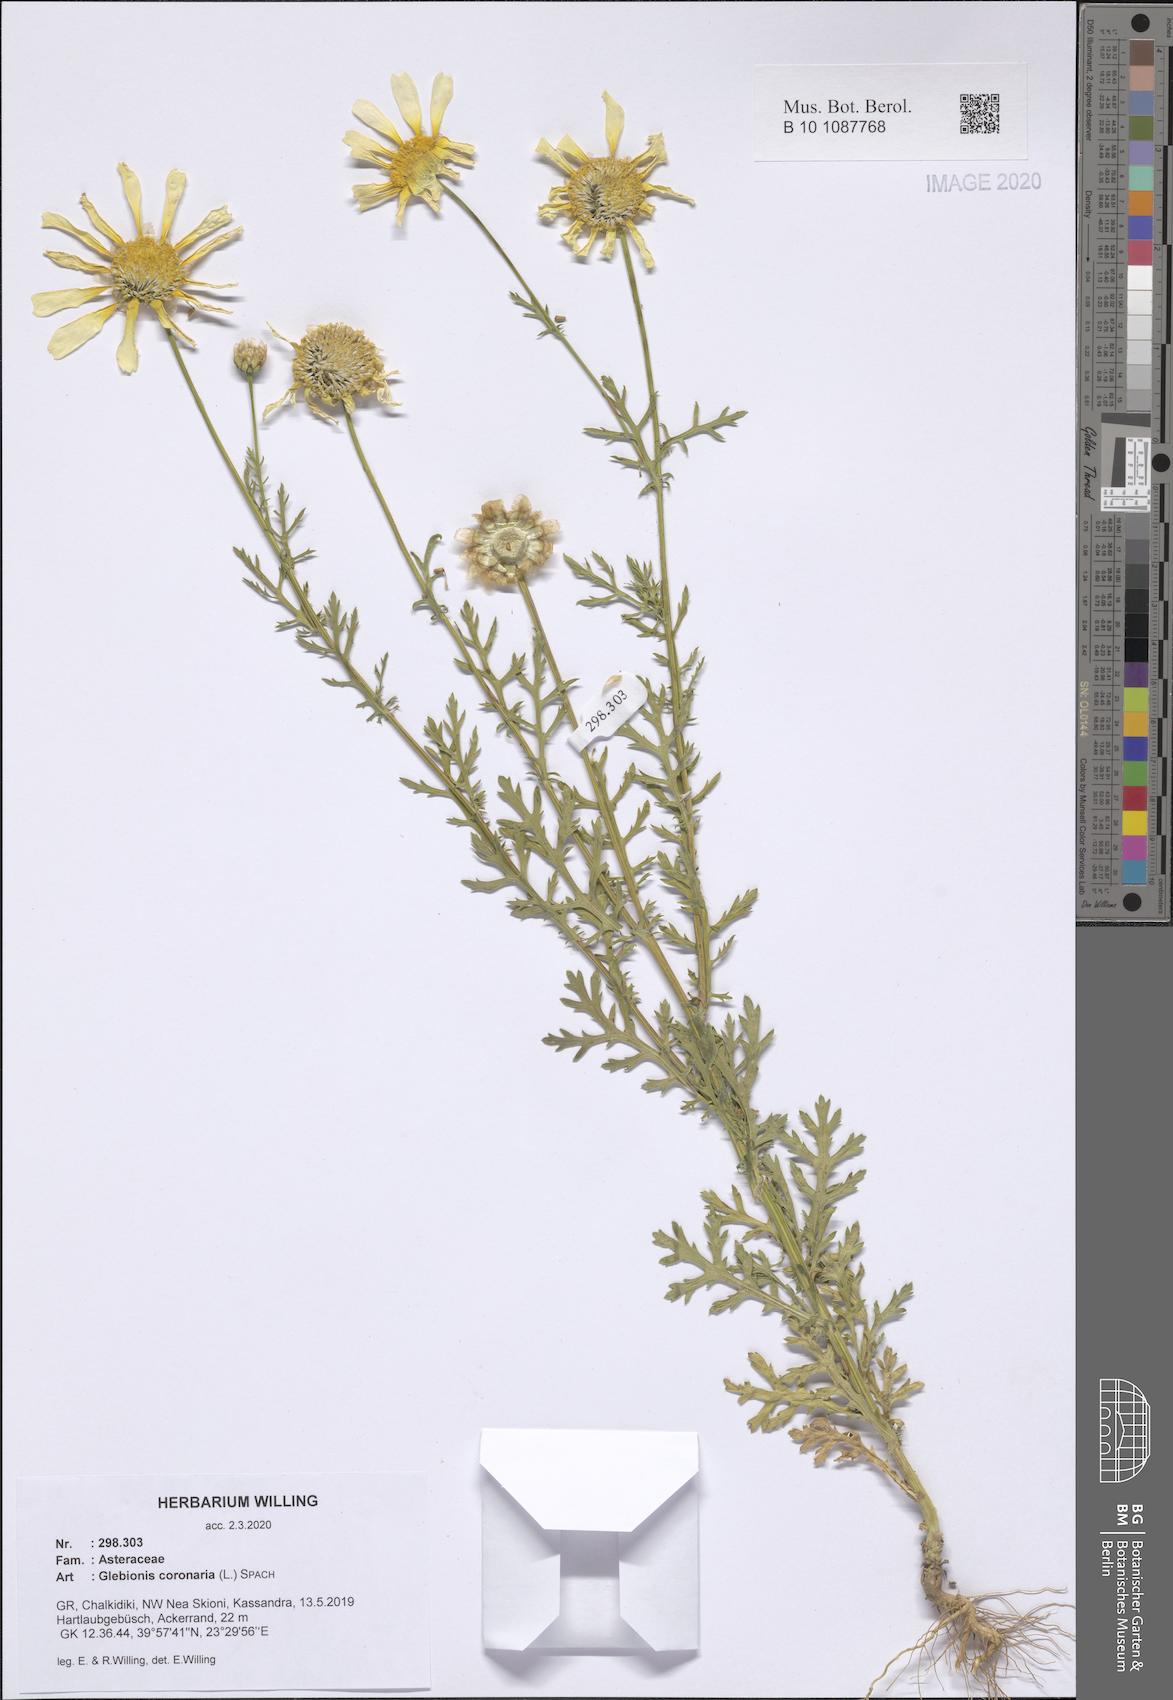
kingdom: Plantae
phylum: Tracheophyta
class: Magnoliopsida
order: Asterales
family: Asteraceae
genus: Glebionis
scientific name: Glebionis coronaria
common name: Crowndaisy
